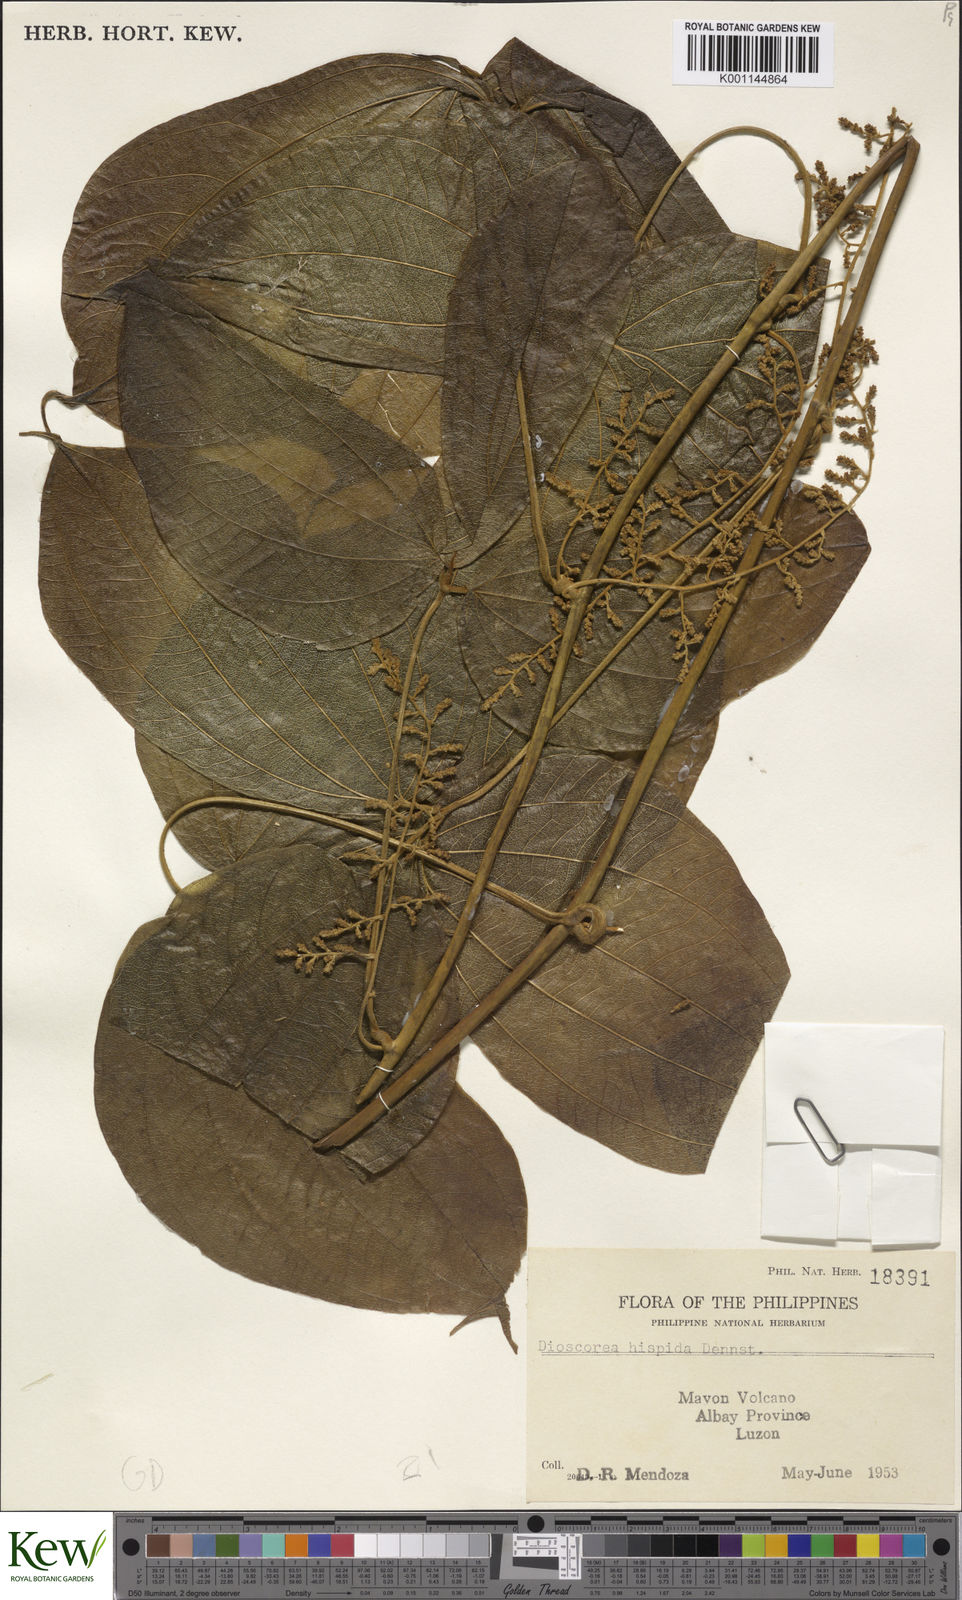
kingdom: Plantae
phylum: Tracheophyta
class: Liliopsida
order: Dioscoreales
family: Dioscoreaceae
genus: Dioscorea
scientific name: Dioscorea hispida
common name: Asiatic bitter yam
